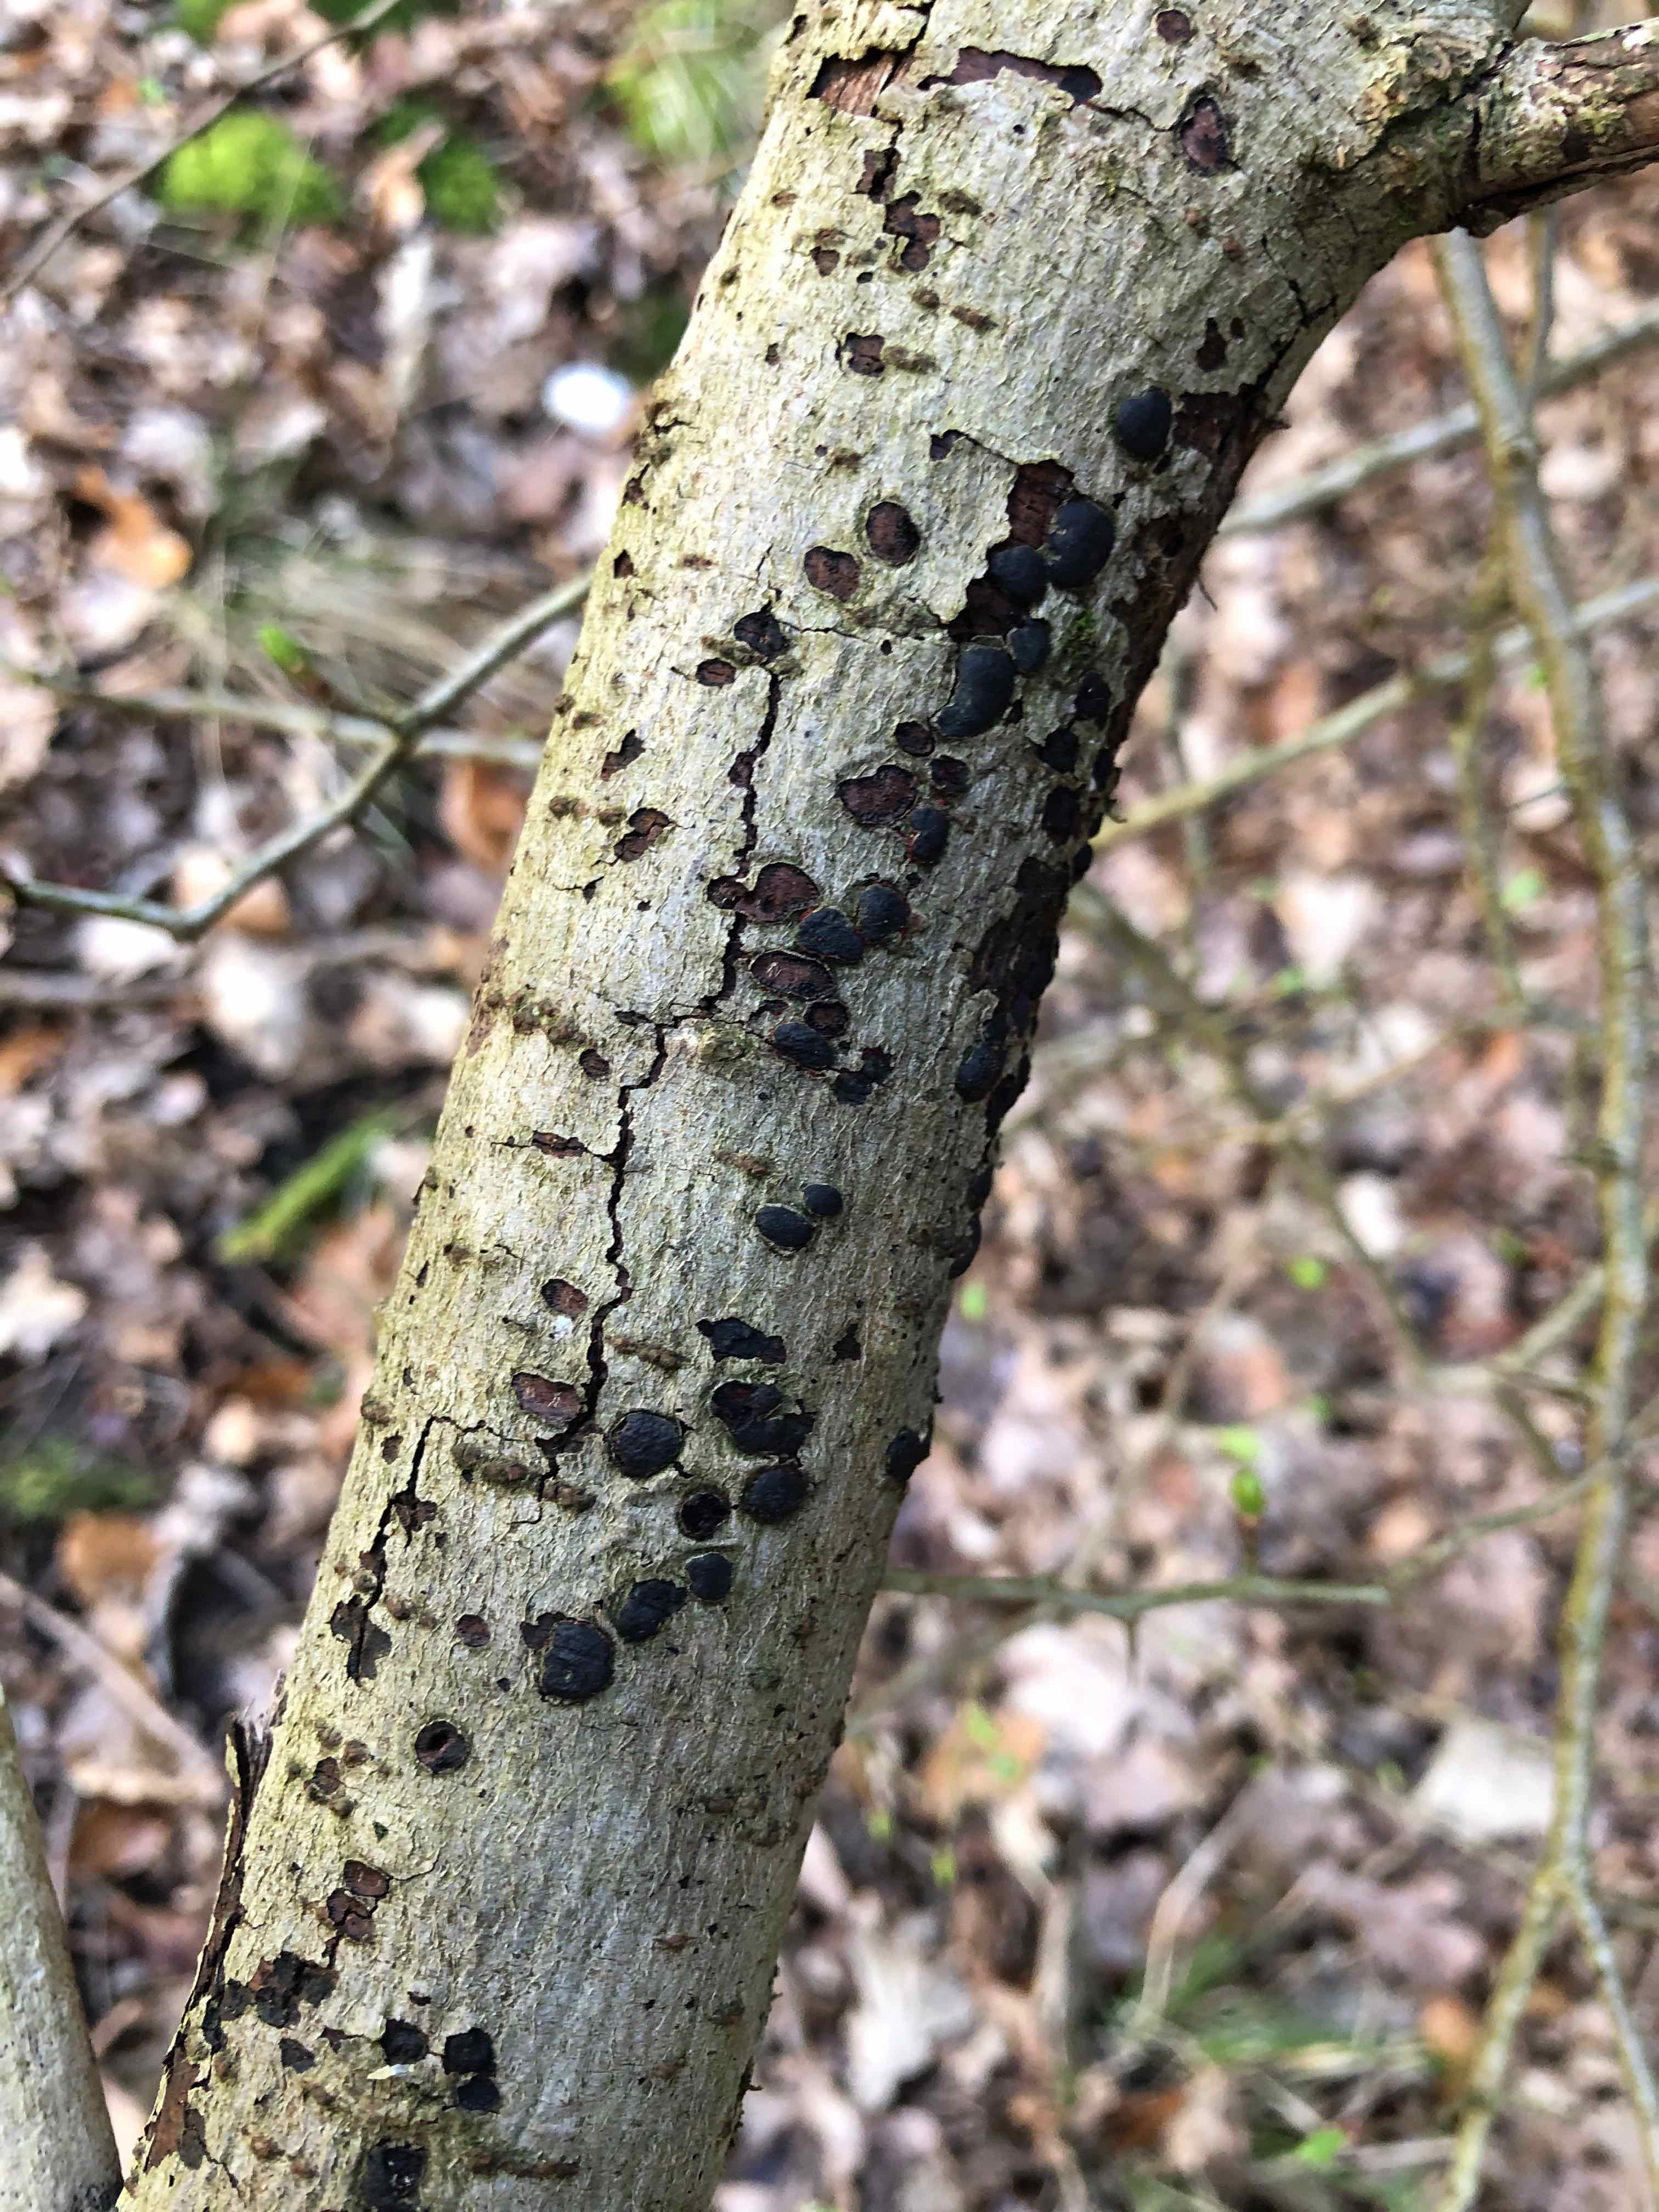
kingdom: Fungi
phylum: Ascomycota
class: Sordariomycetes
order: Xylariales
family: Diatrypaceae
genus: Diatrype
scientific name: Diatrype bullata
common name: pile-kulskorpe
